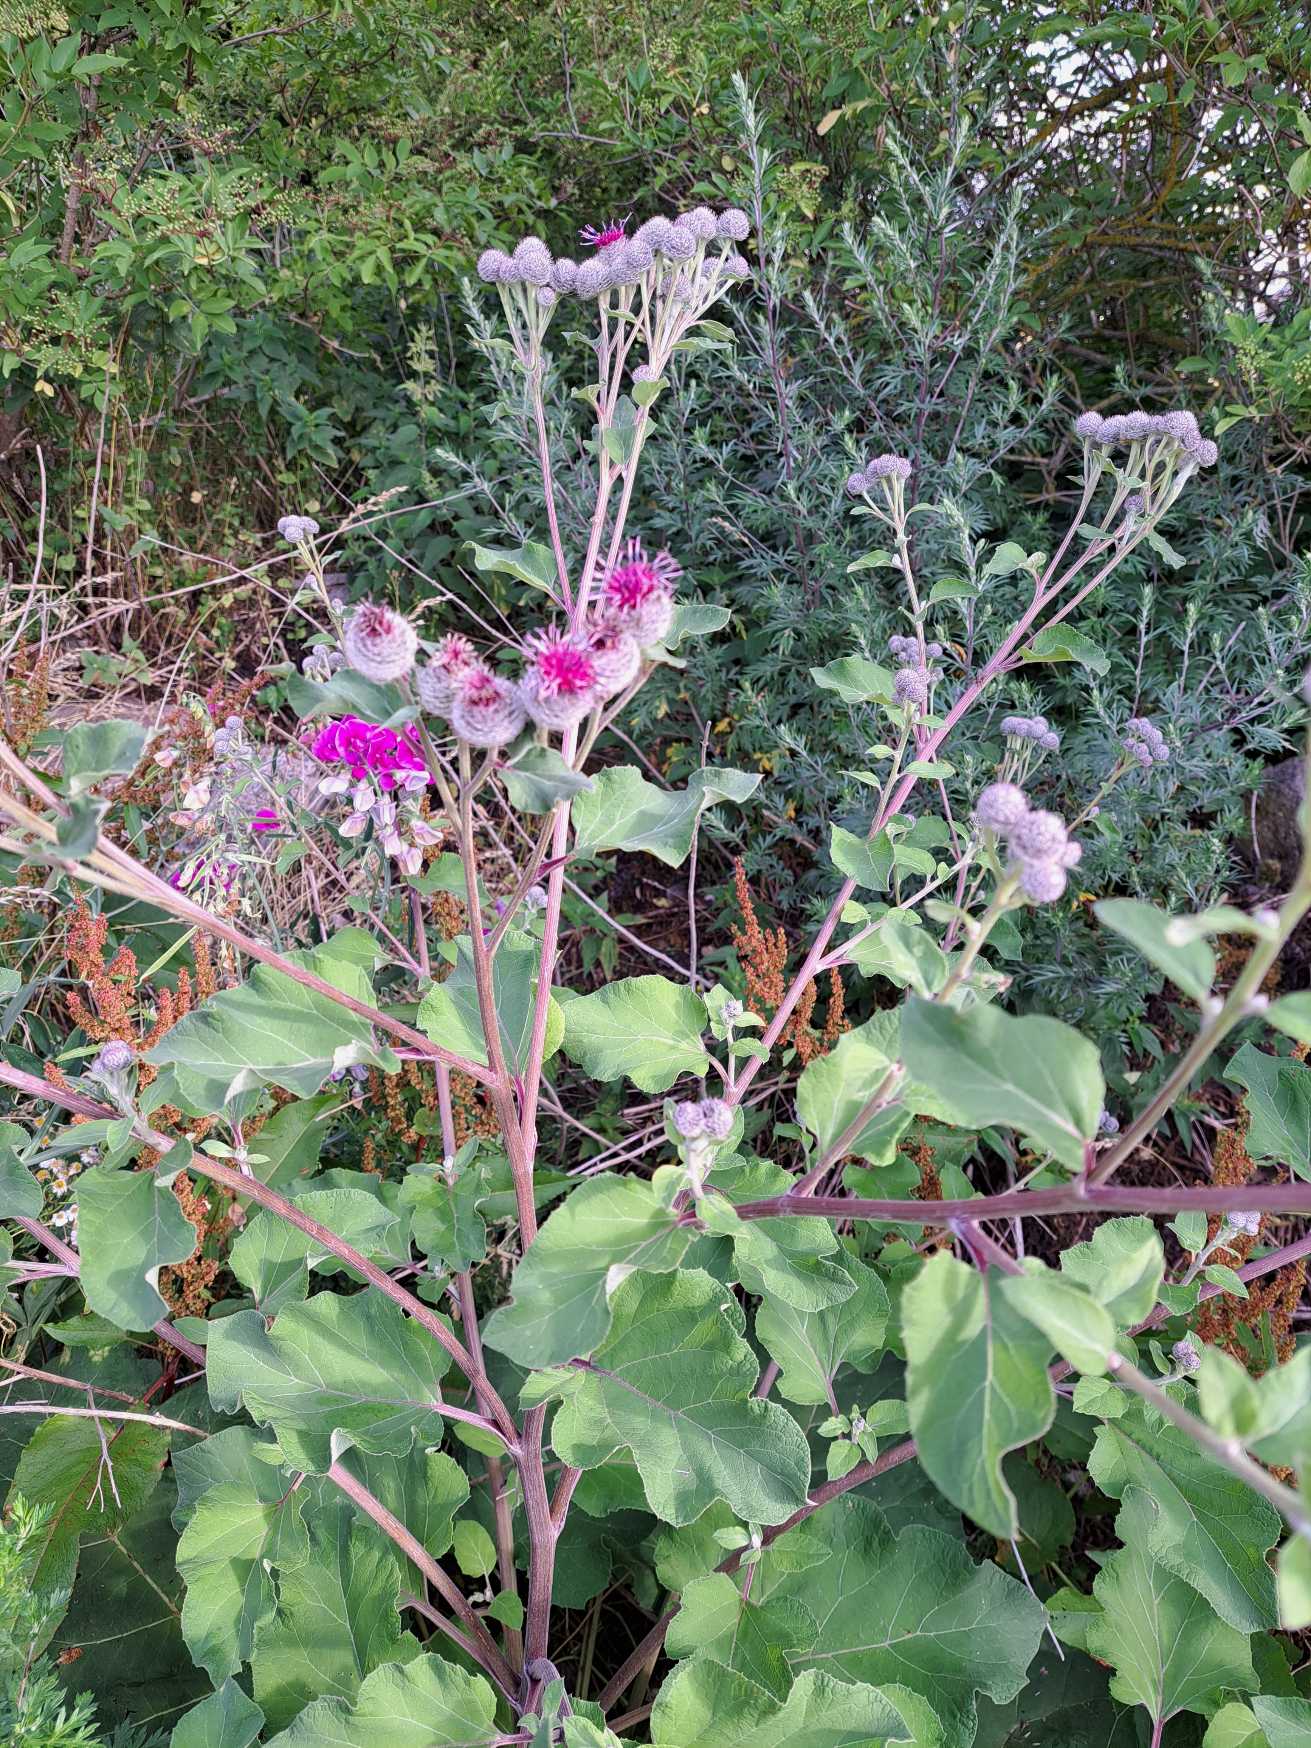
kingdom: Plantae
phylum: Tracheophyta
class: Magnoliopsida
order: Asterales
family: Asteraceae
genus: Arctium
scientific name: Arctium tomentosum
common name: Filtet burre
